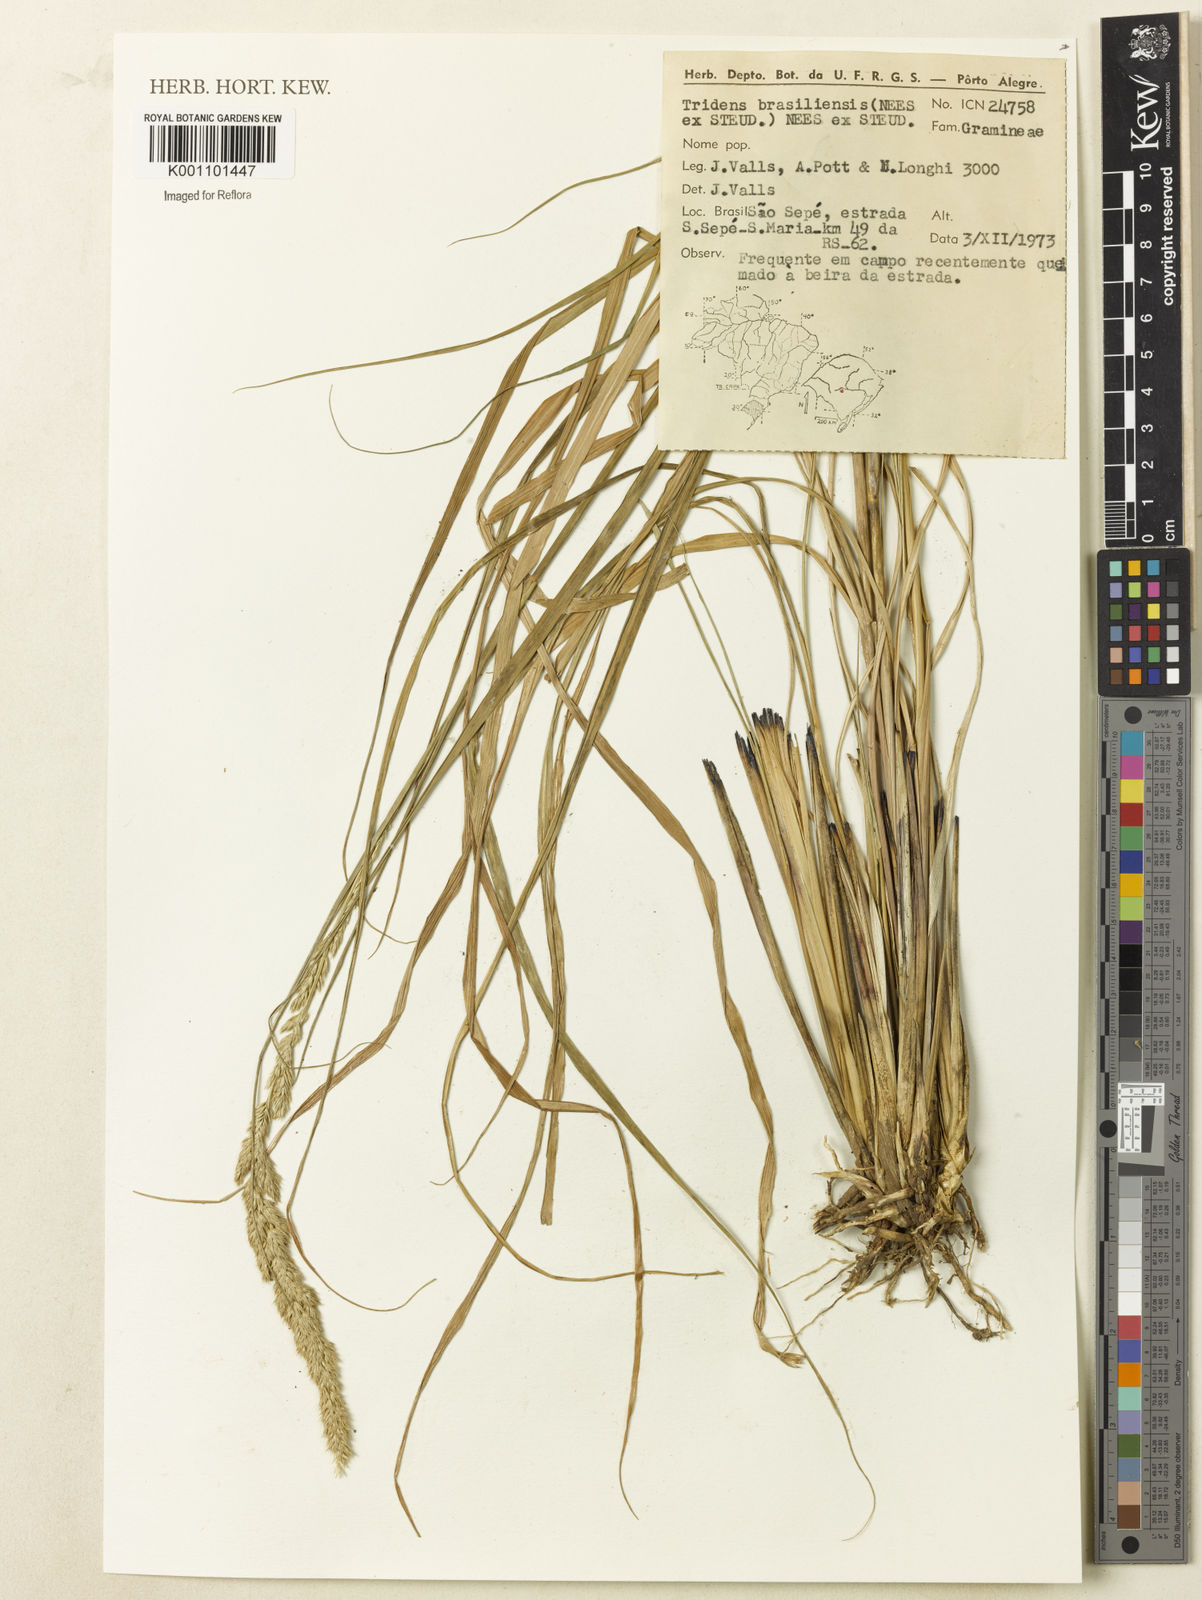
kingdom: Plantae
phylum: Tracheophyta
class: Liliopsida
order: Poales
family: Poaceae
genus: Tridens
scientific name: Tridens brasiliensis
